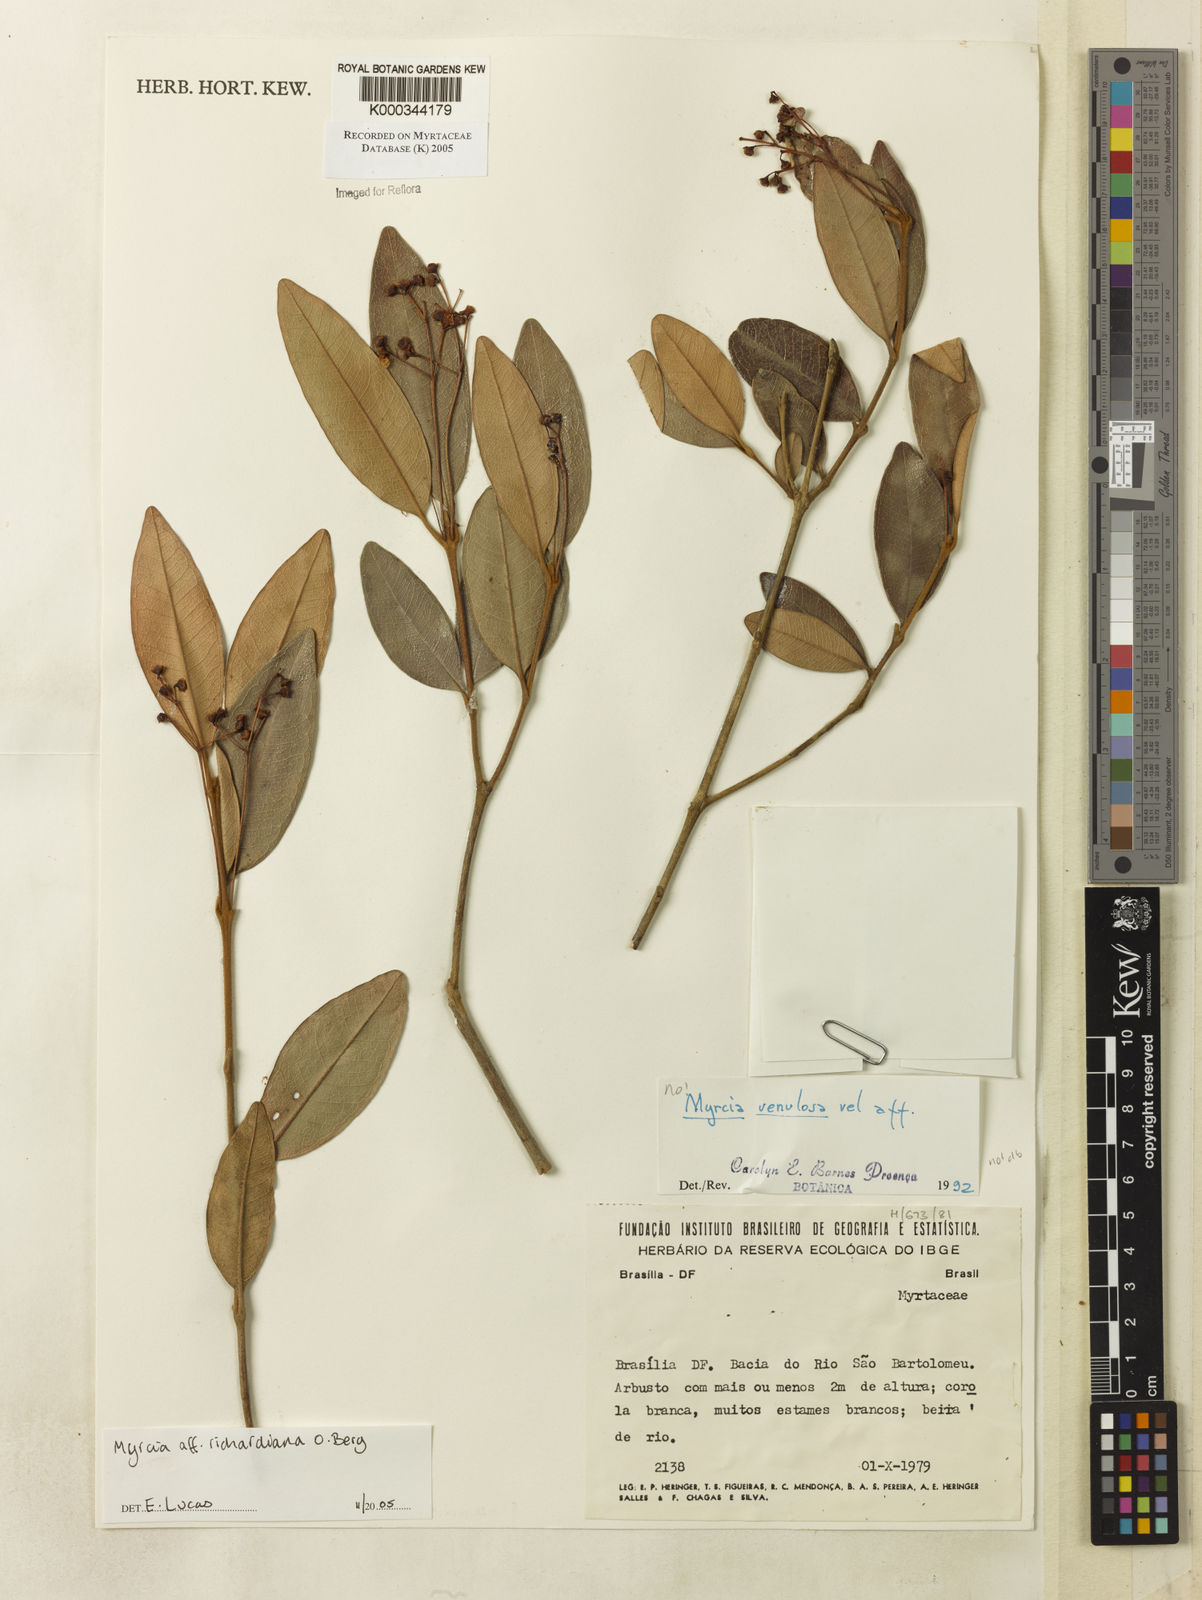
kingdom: Plantae
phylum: Tracheophyta
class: Magnoliopsida
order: Myrtales
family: Myrtaceae
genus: Myrcia
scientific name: Myrcia richardiana
